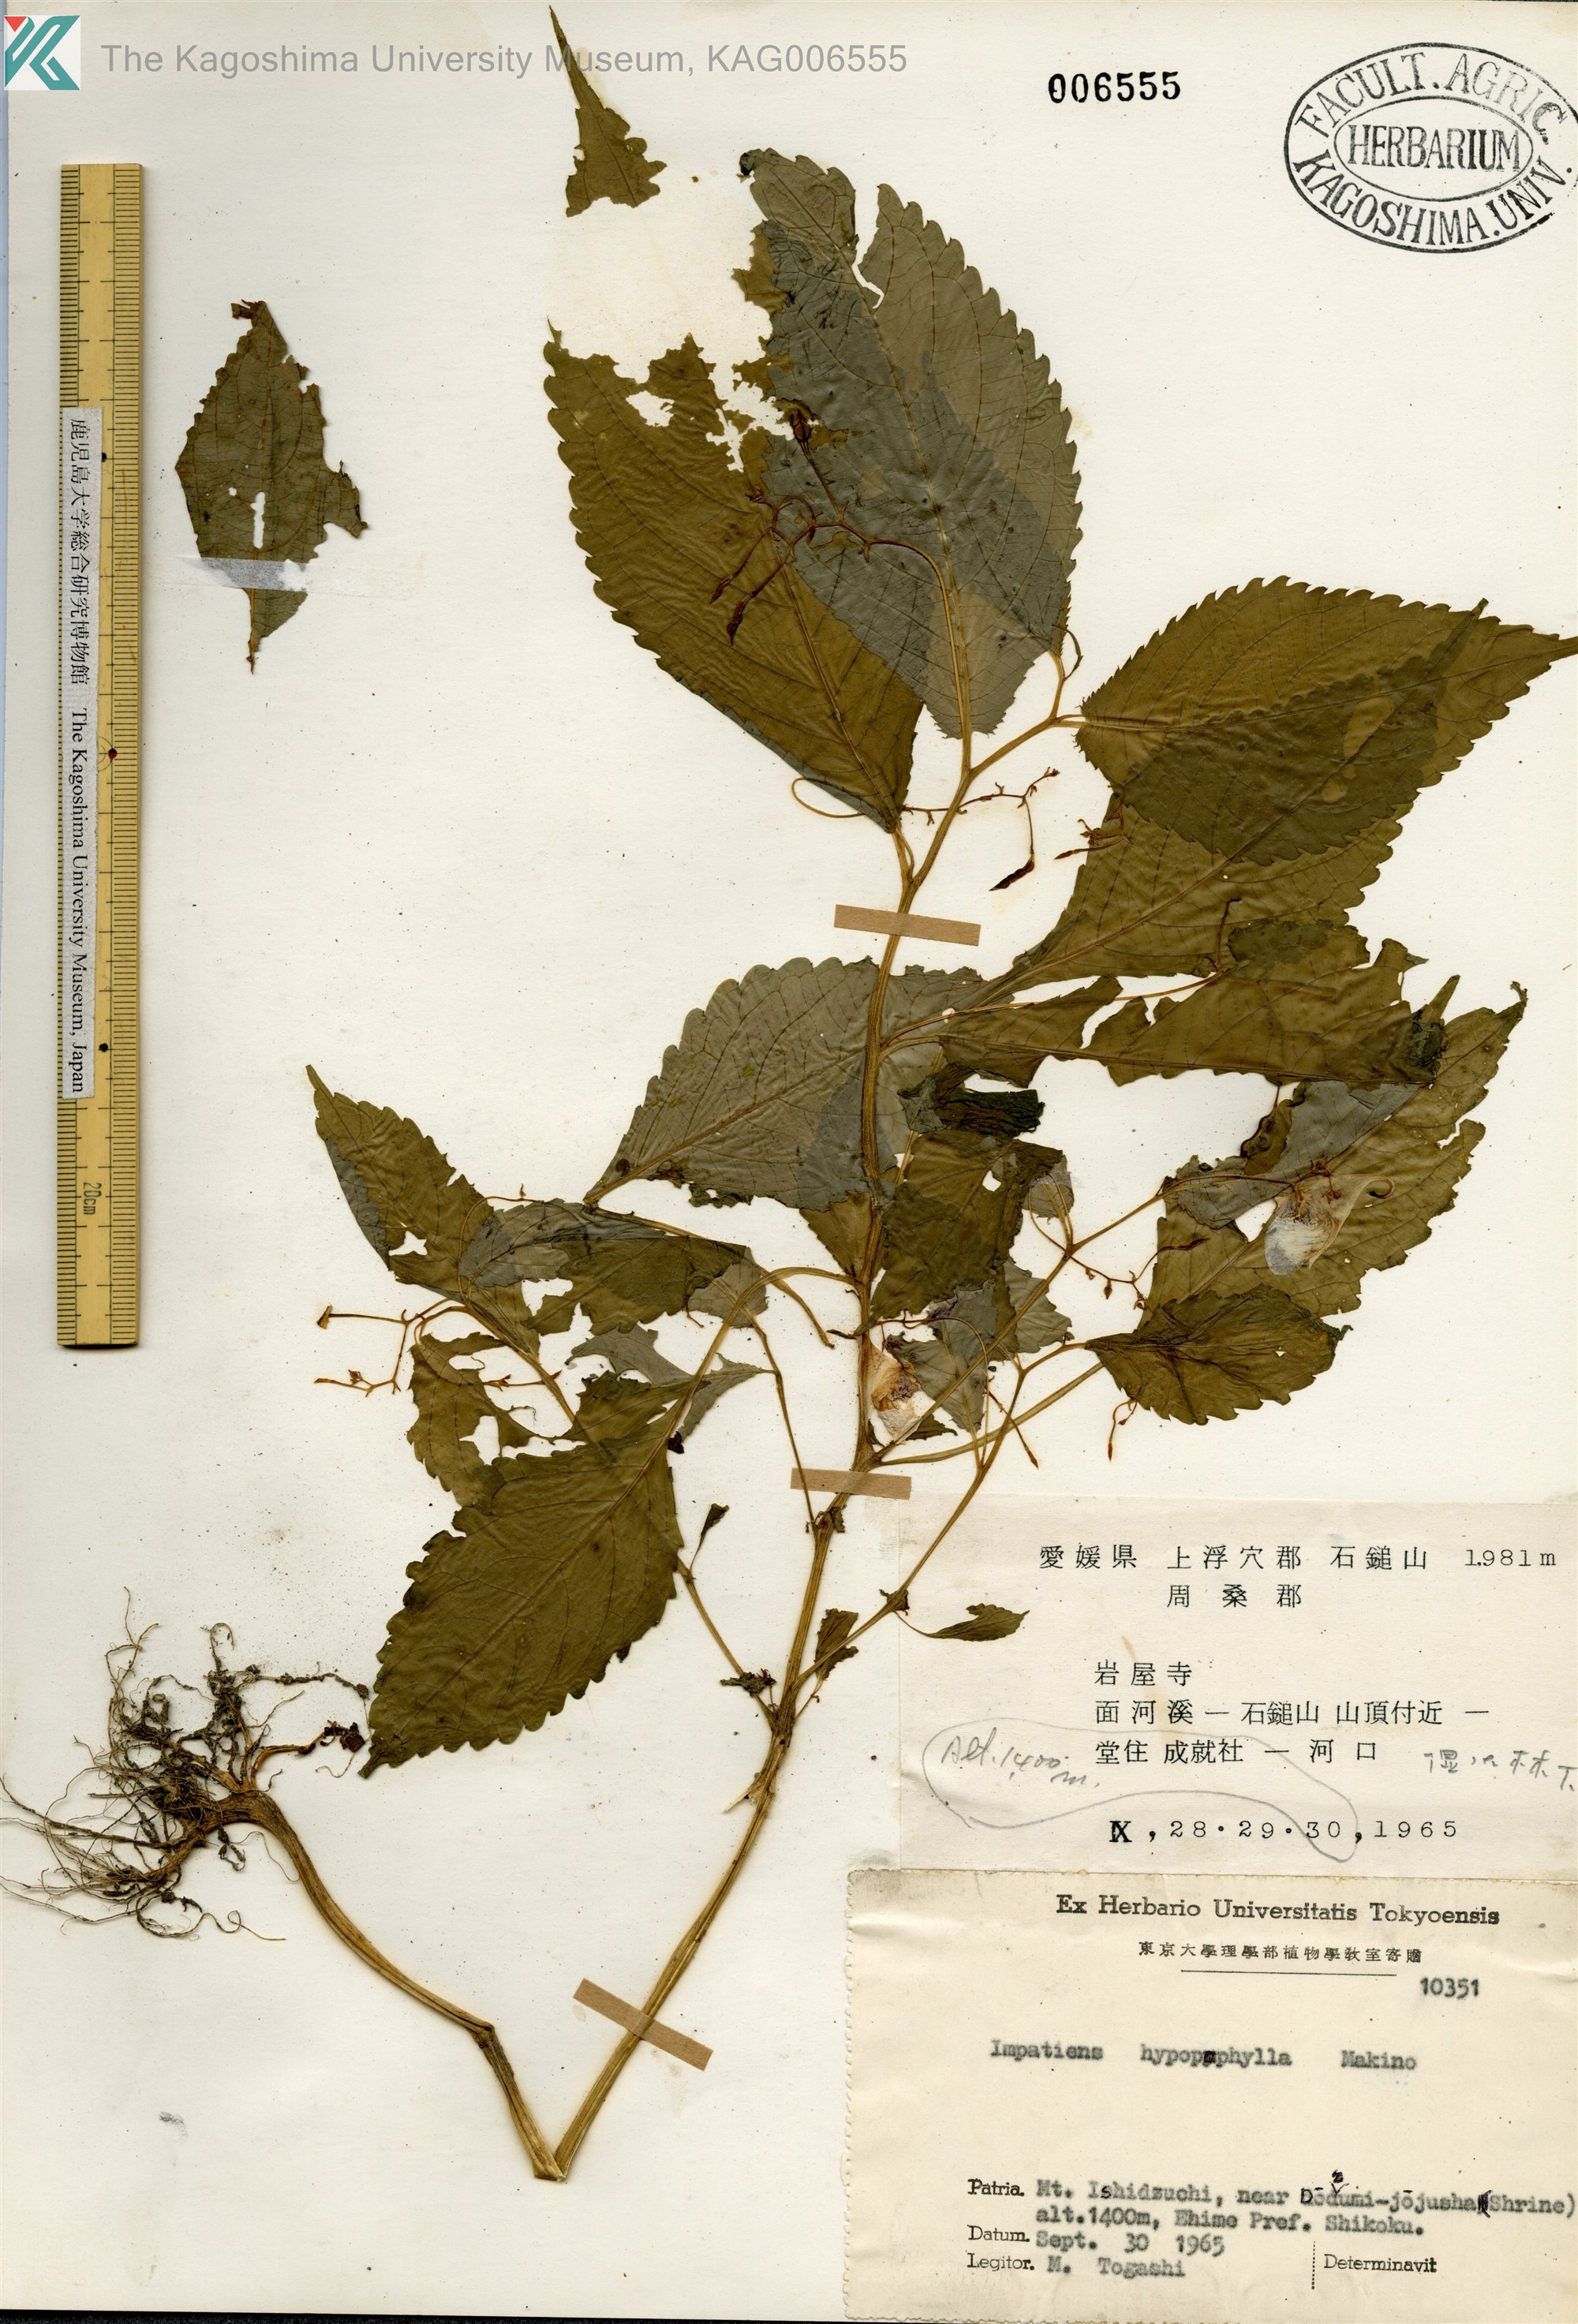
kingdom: Plantae
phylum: Tracheophyta
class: Magnoliopsida
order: Ericales
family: Balsaminaceae
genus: Impatiens
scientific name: Impatiens hypophylla
